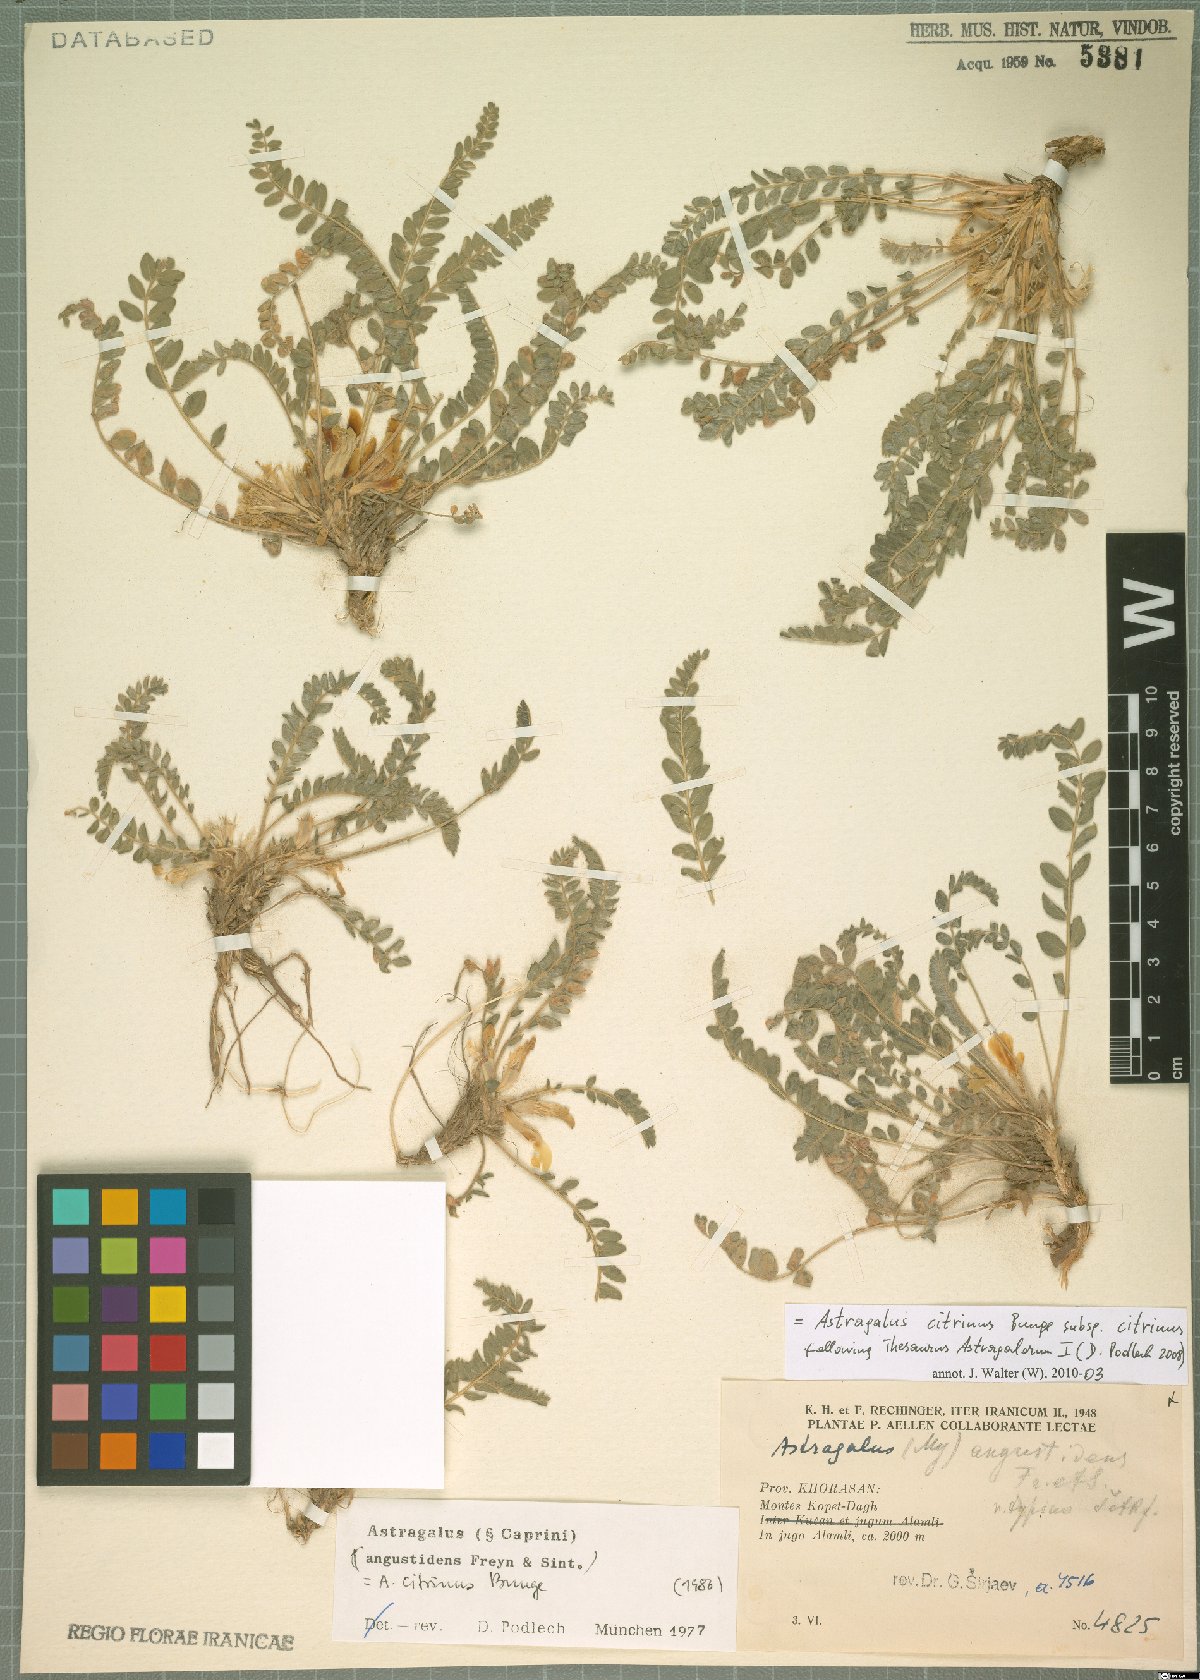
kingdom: Plantae
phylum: Tracheophyta
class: Magnoliopsida
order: Fabales
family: Fabaceae
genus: Astragalus
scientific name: Astragalus citrinus
